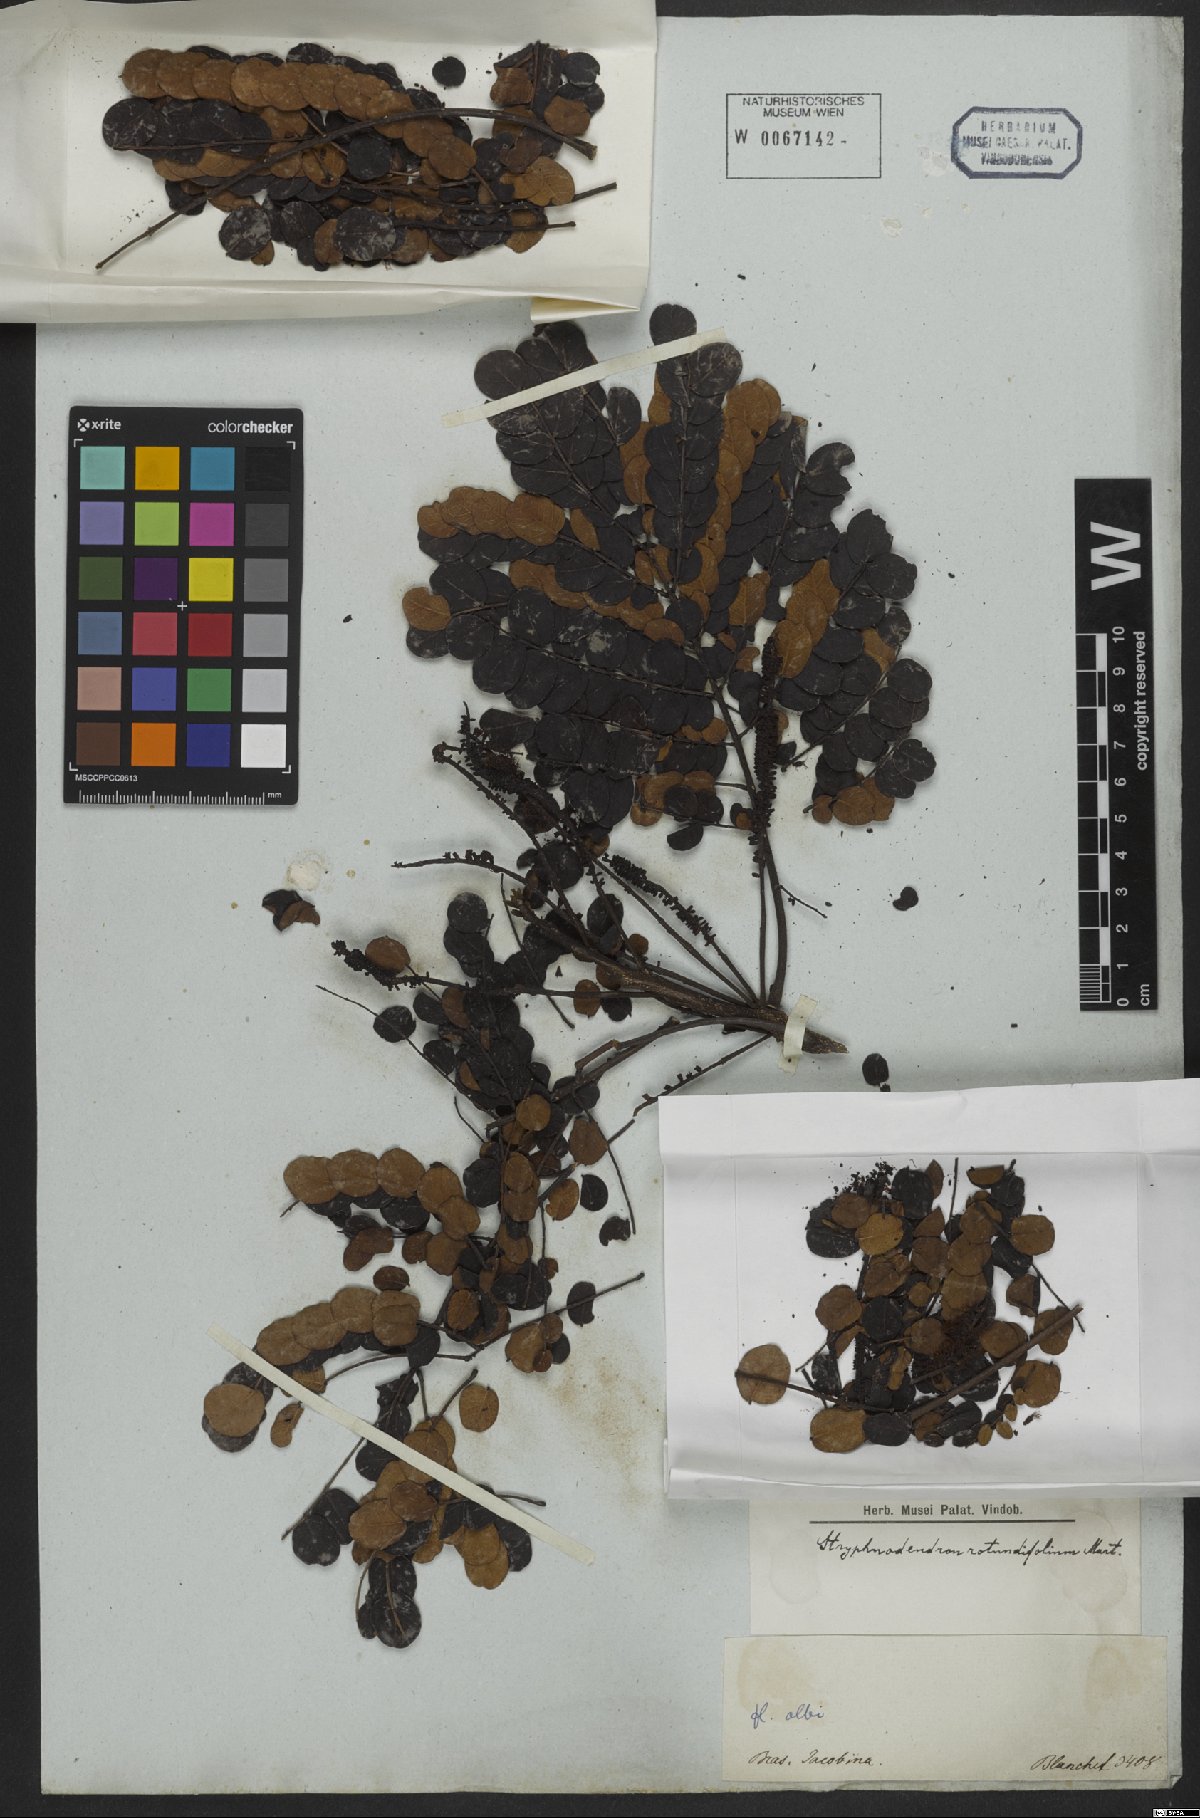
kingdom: Plantae
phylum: Tracheophyta
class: Magnoliopsida
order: Fabales
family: Fabaceae
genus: Stryphnodendron
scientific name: Stryphnodendron rotundifolium
